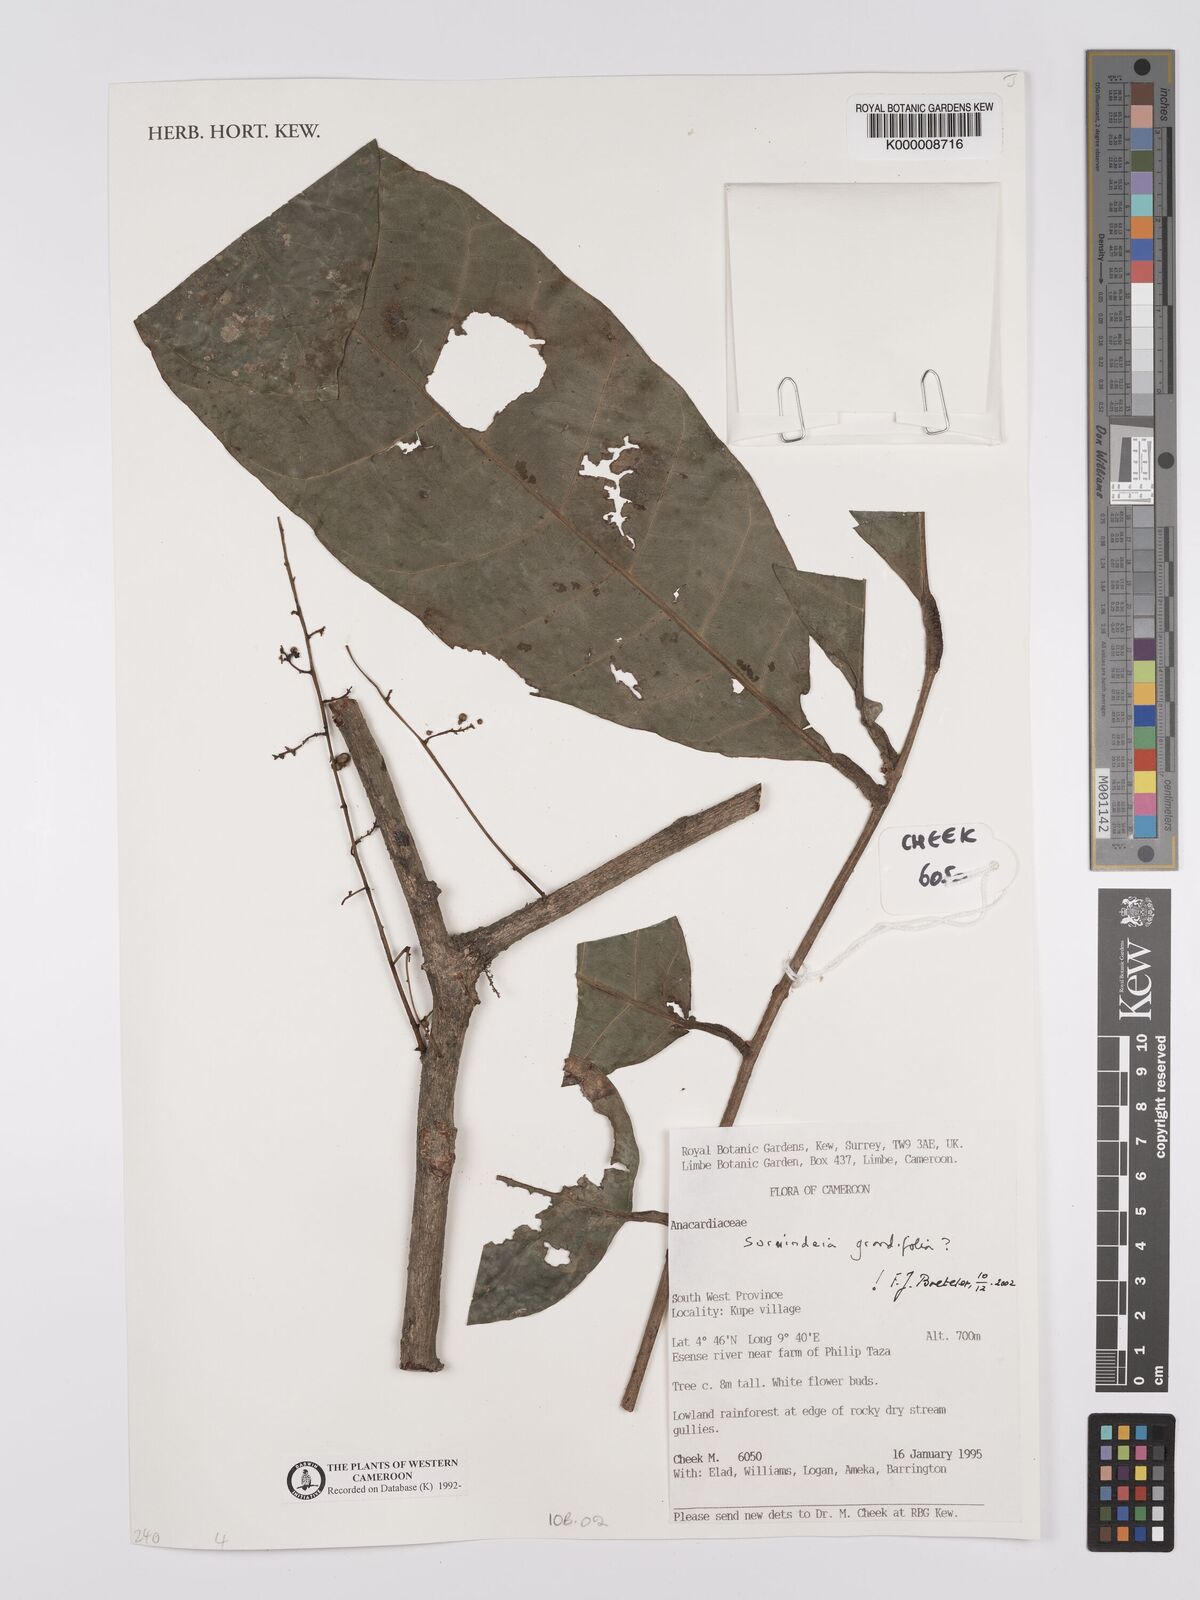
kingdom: Plantae
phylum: Tracheophyta
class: Magnoliopsida
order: Sapindales
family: Anacardiaceae
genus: Sorindeia
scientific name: Sorindeia grandifolia
